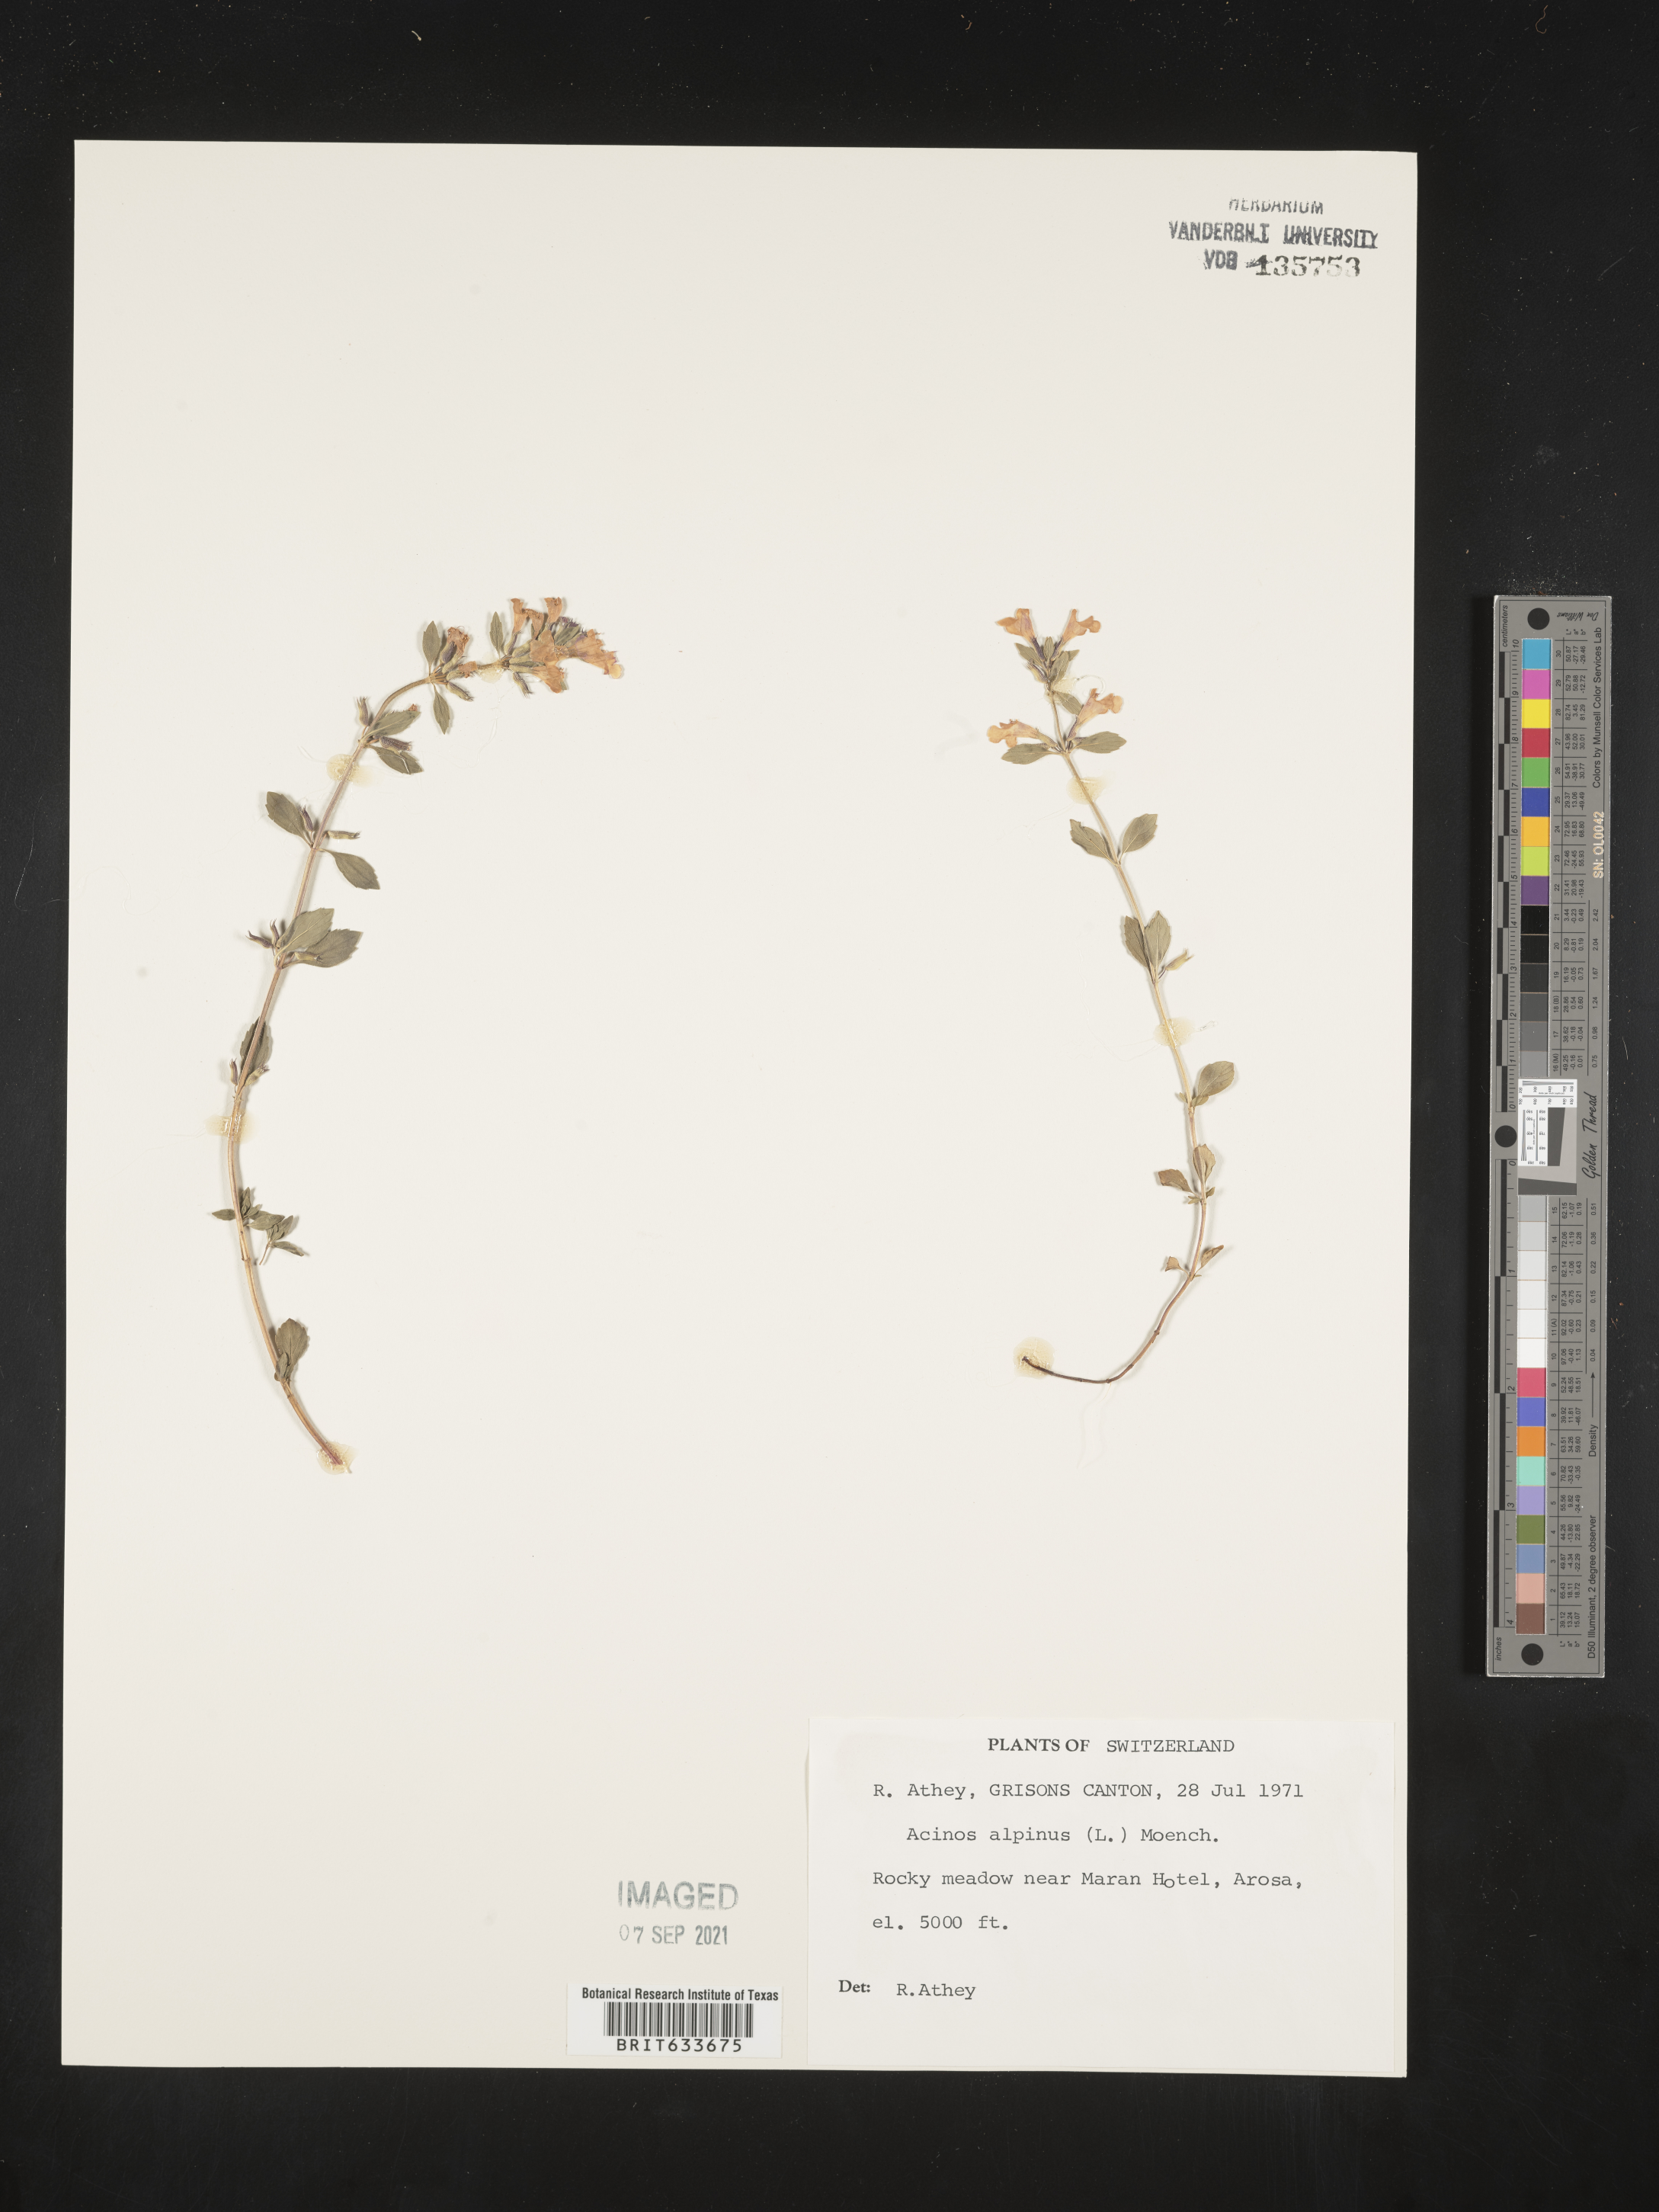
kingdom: Plantae
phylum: Tracheophyta
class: Magnoliopsida
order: Lamiales
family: Lamiaceae
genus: Acinos
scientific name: Acinos
